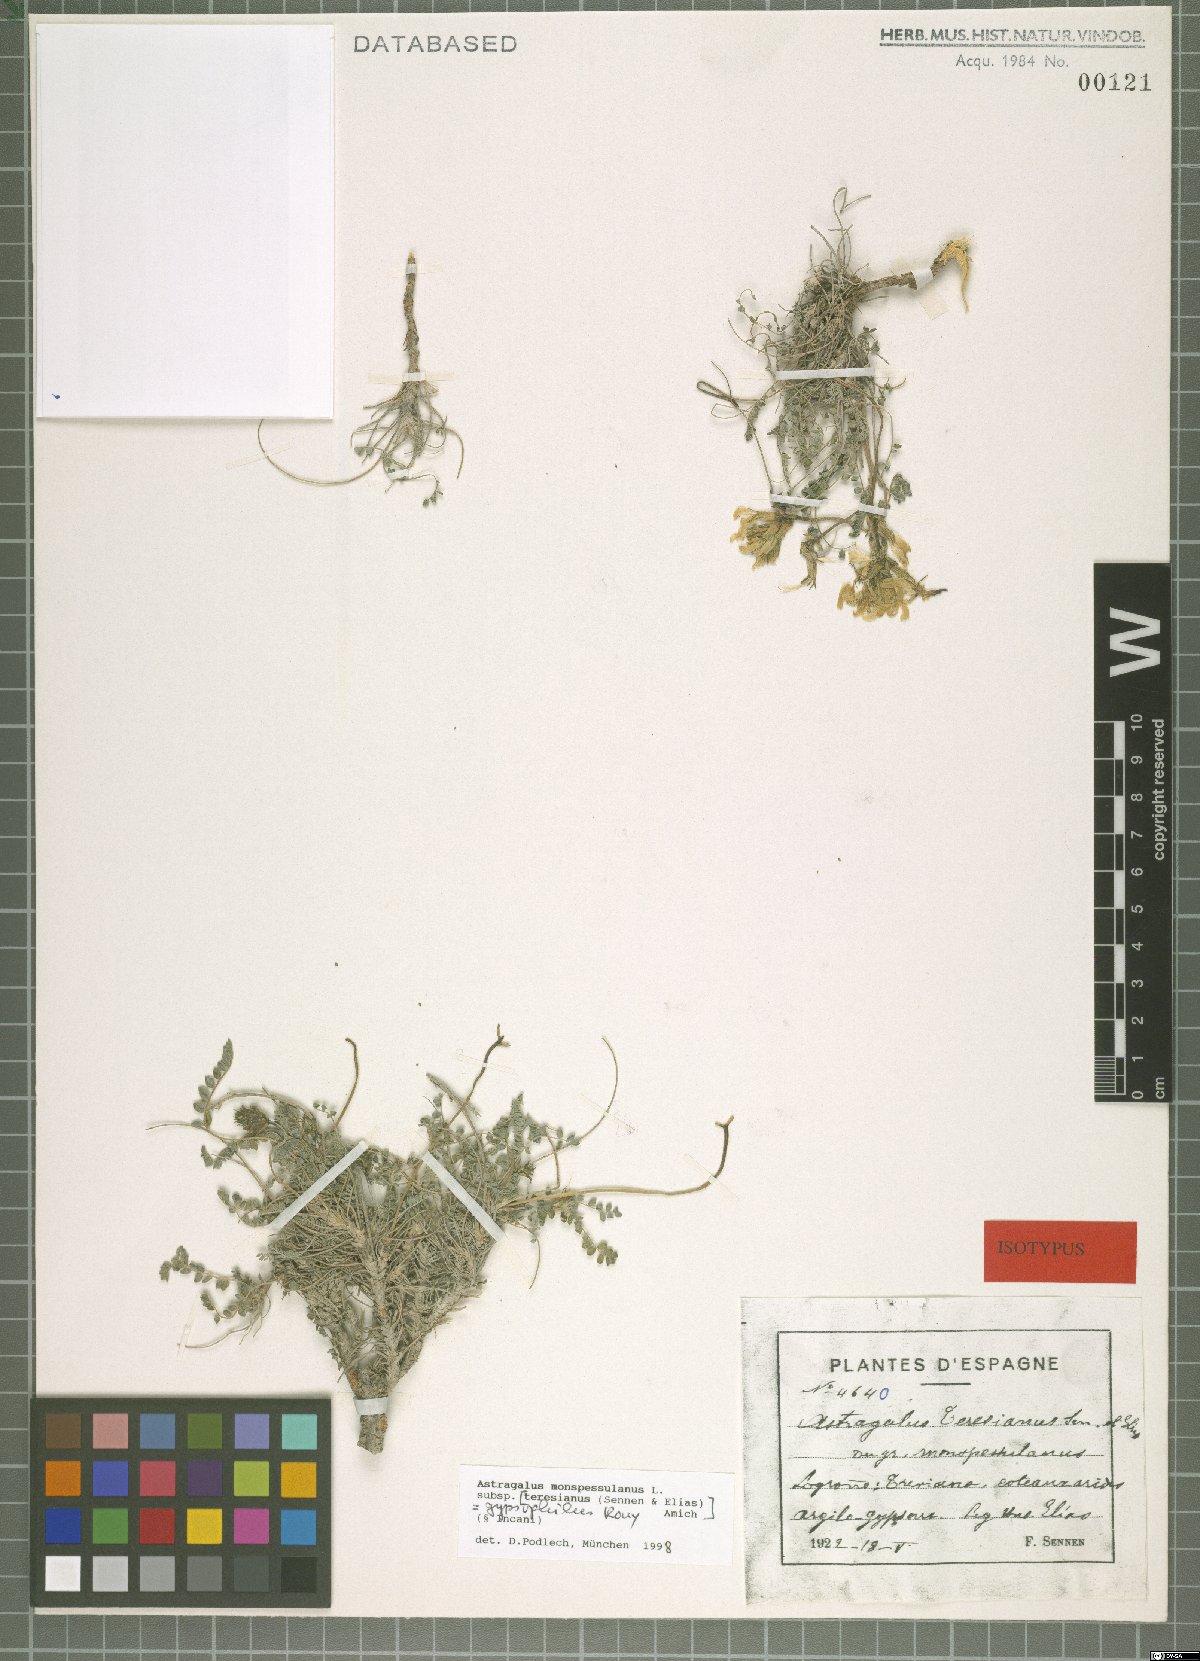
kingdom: Plantae
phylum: Tracheophyta
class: Magnoliopsida
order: Fabales
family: Fabaceae
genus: Astragalus
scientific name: Astragalus monspessulanus
